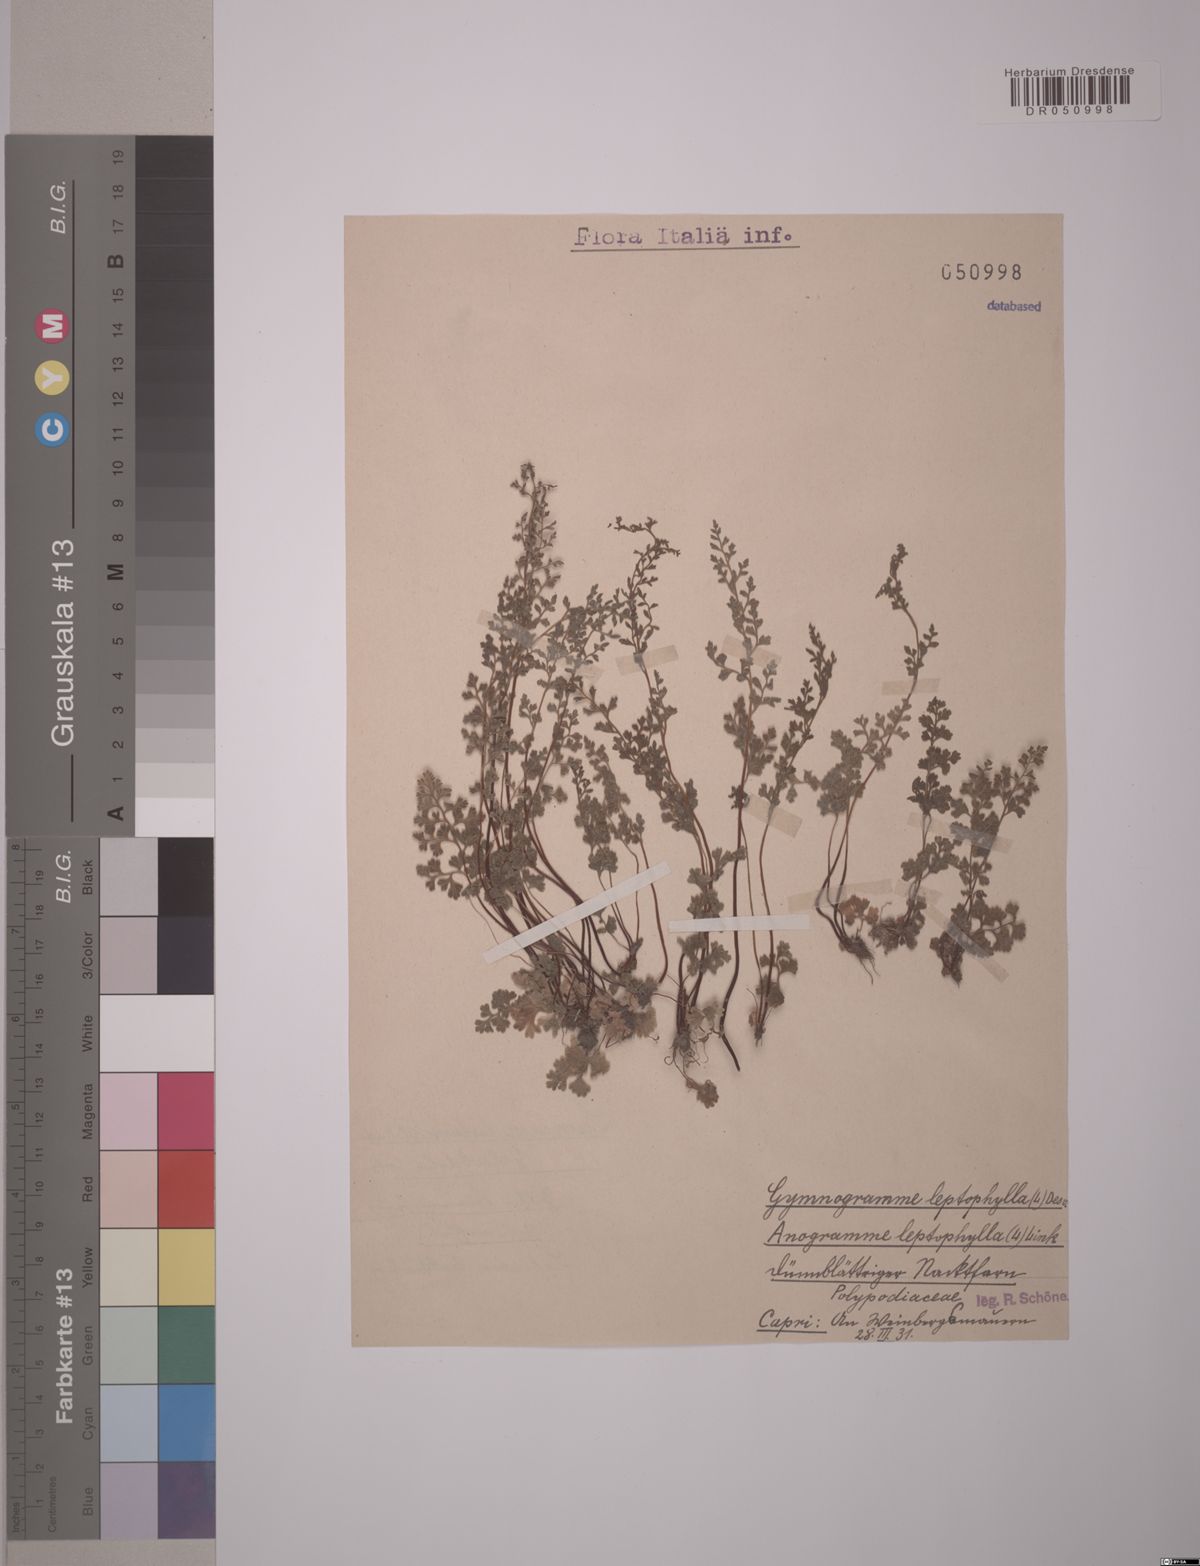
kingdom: Plantae
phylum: Tracheophyta
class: Polypodiopsida
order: Polypodiales
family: Pteridaceae
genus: Anogramma
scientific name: Anogramma leptophylla
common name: Jersey fern
